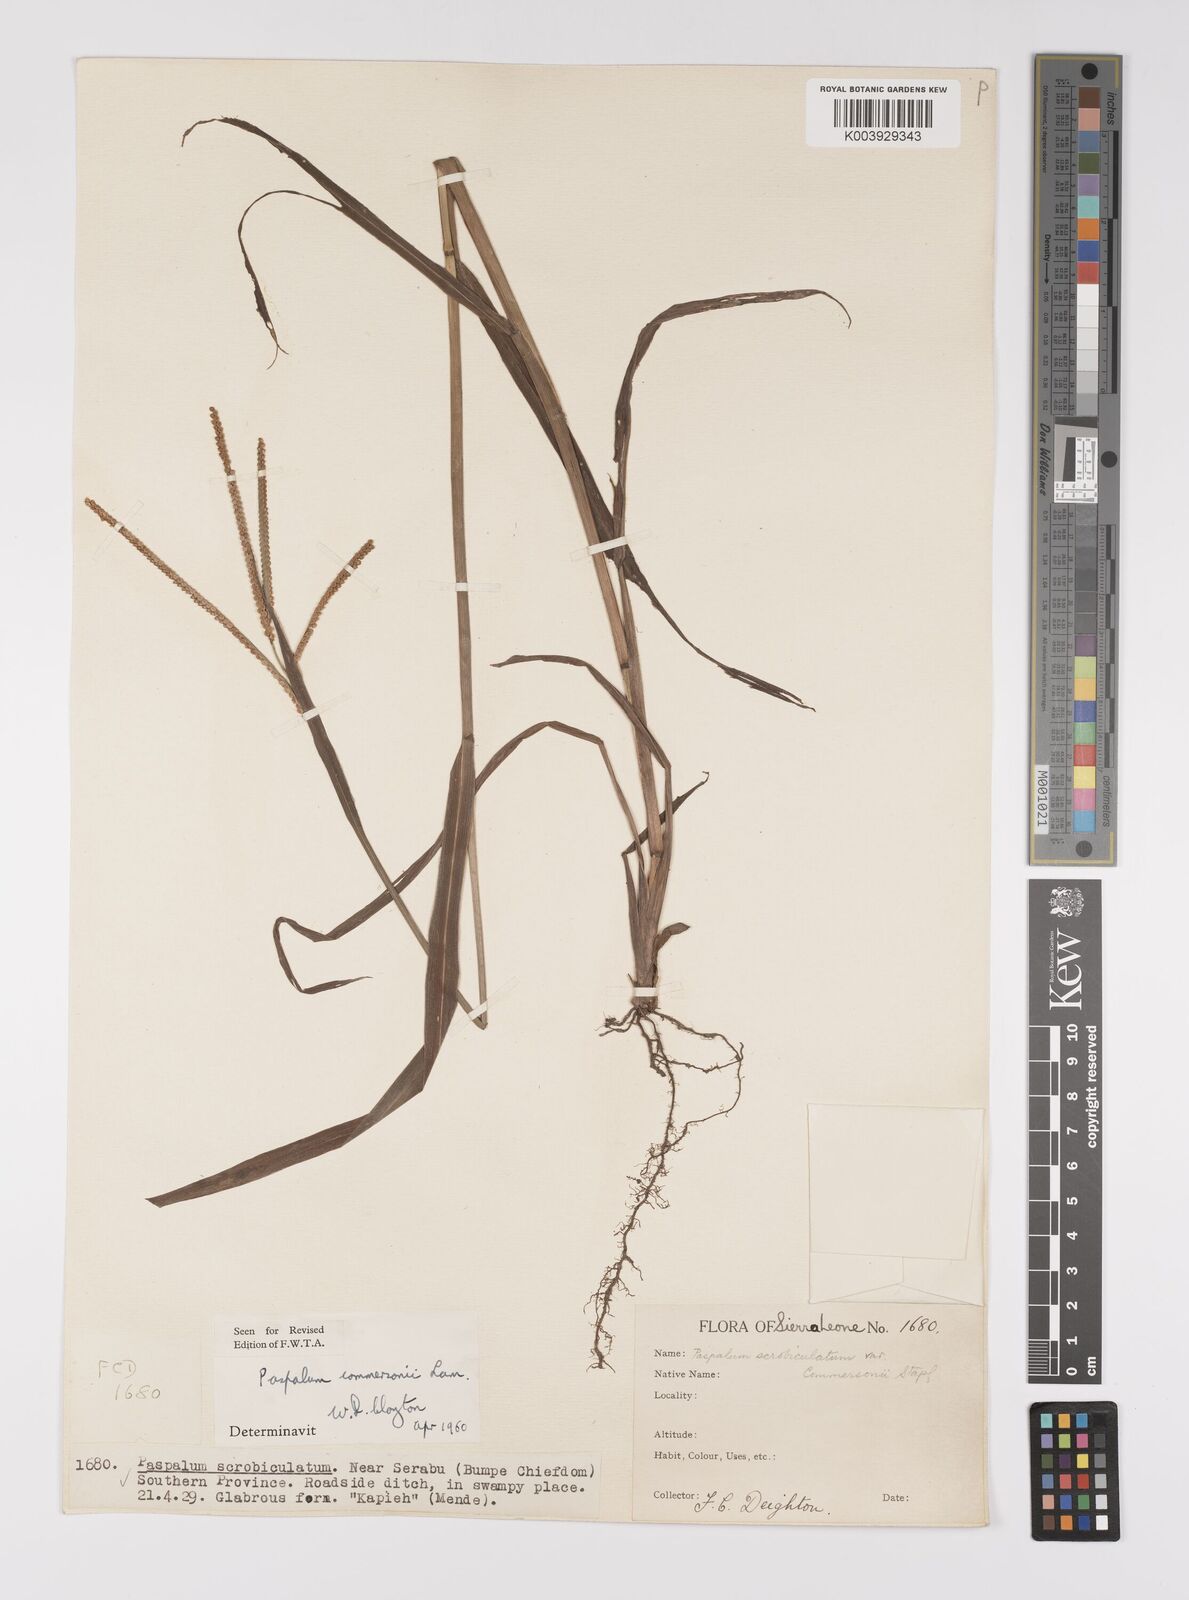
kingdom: Plantae
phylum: Tracheophyta
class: Liliopsida
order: Poales
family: Poaceae
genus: Paspalum
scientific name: Paspalum scrobiculatum
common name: Kodo millet
